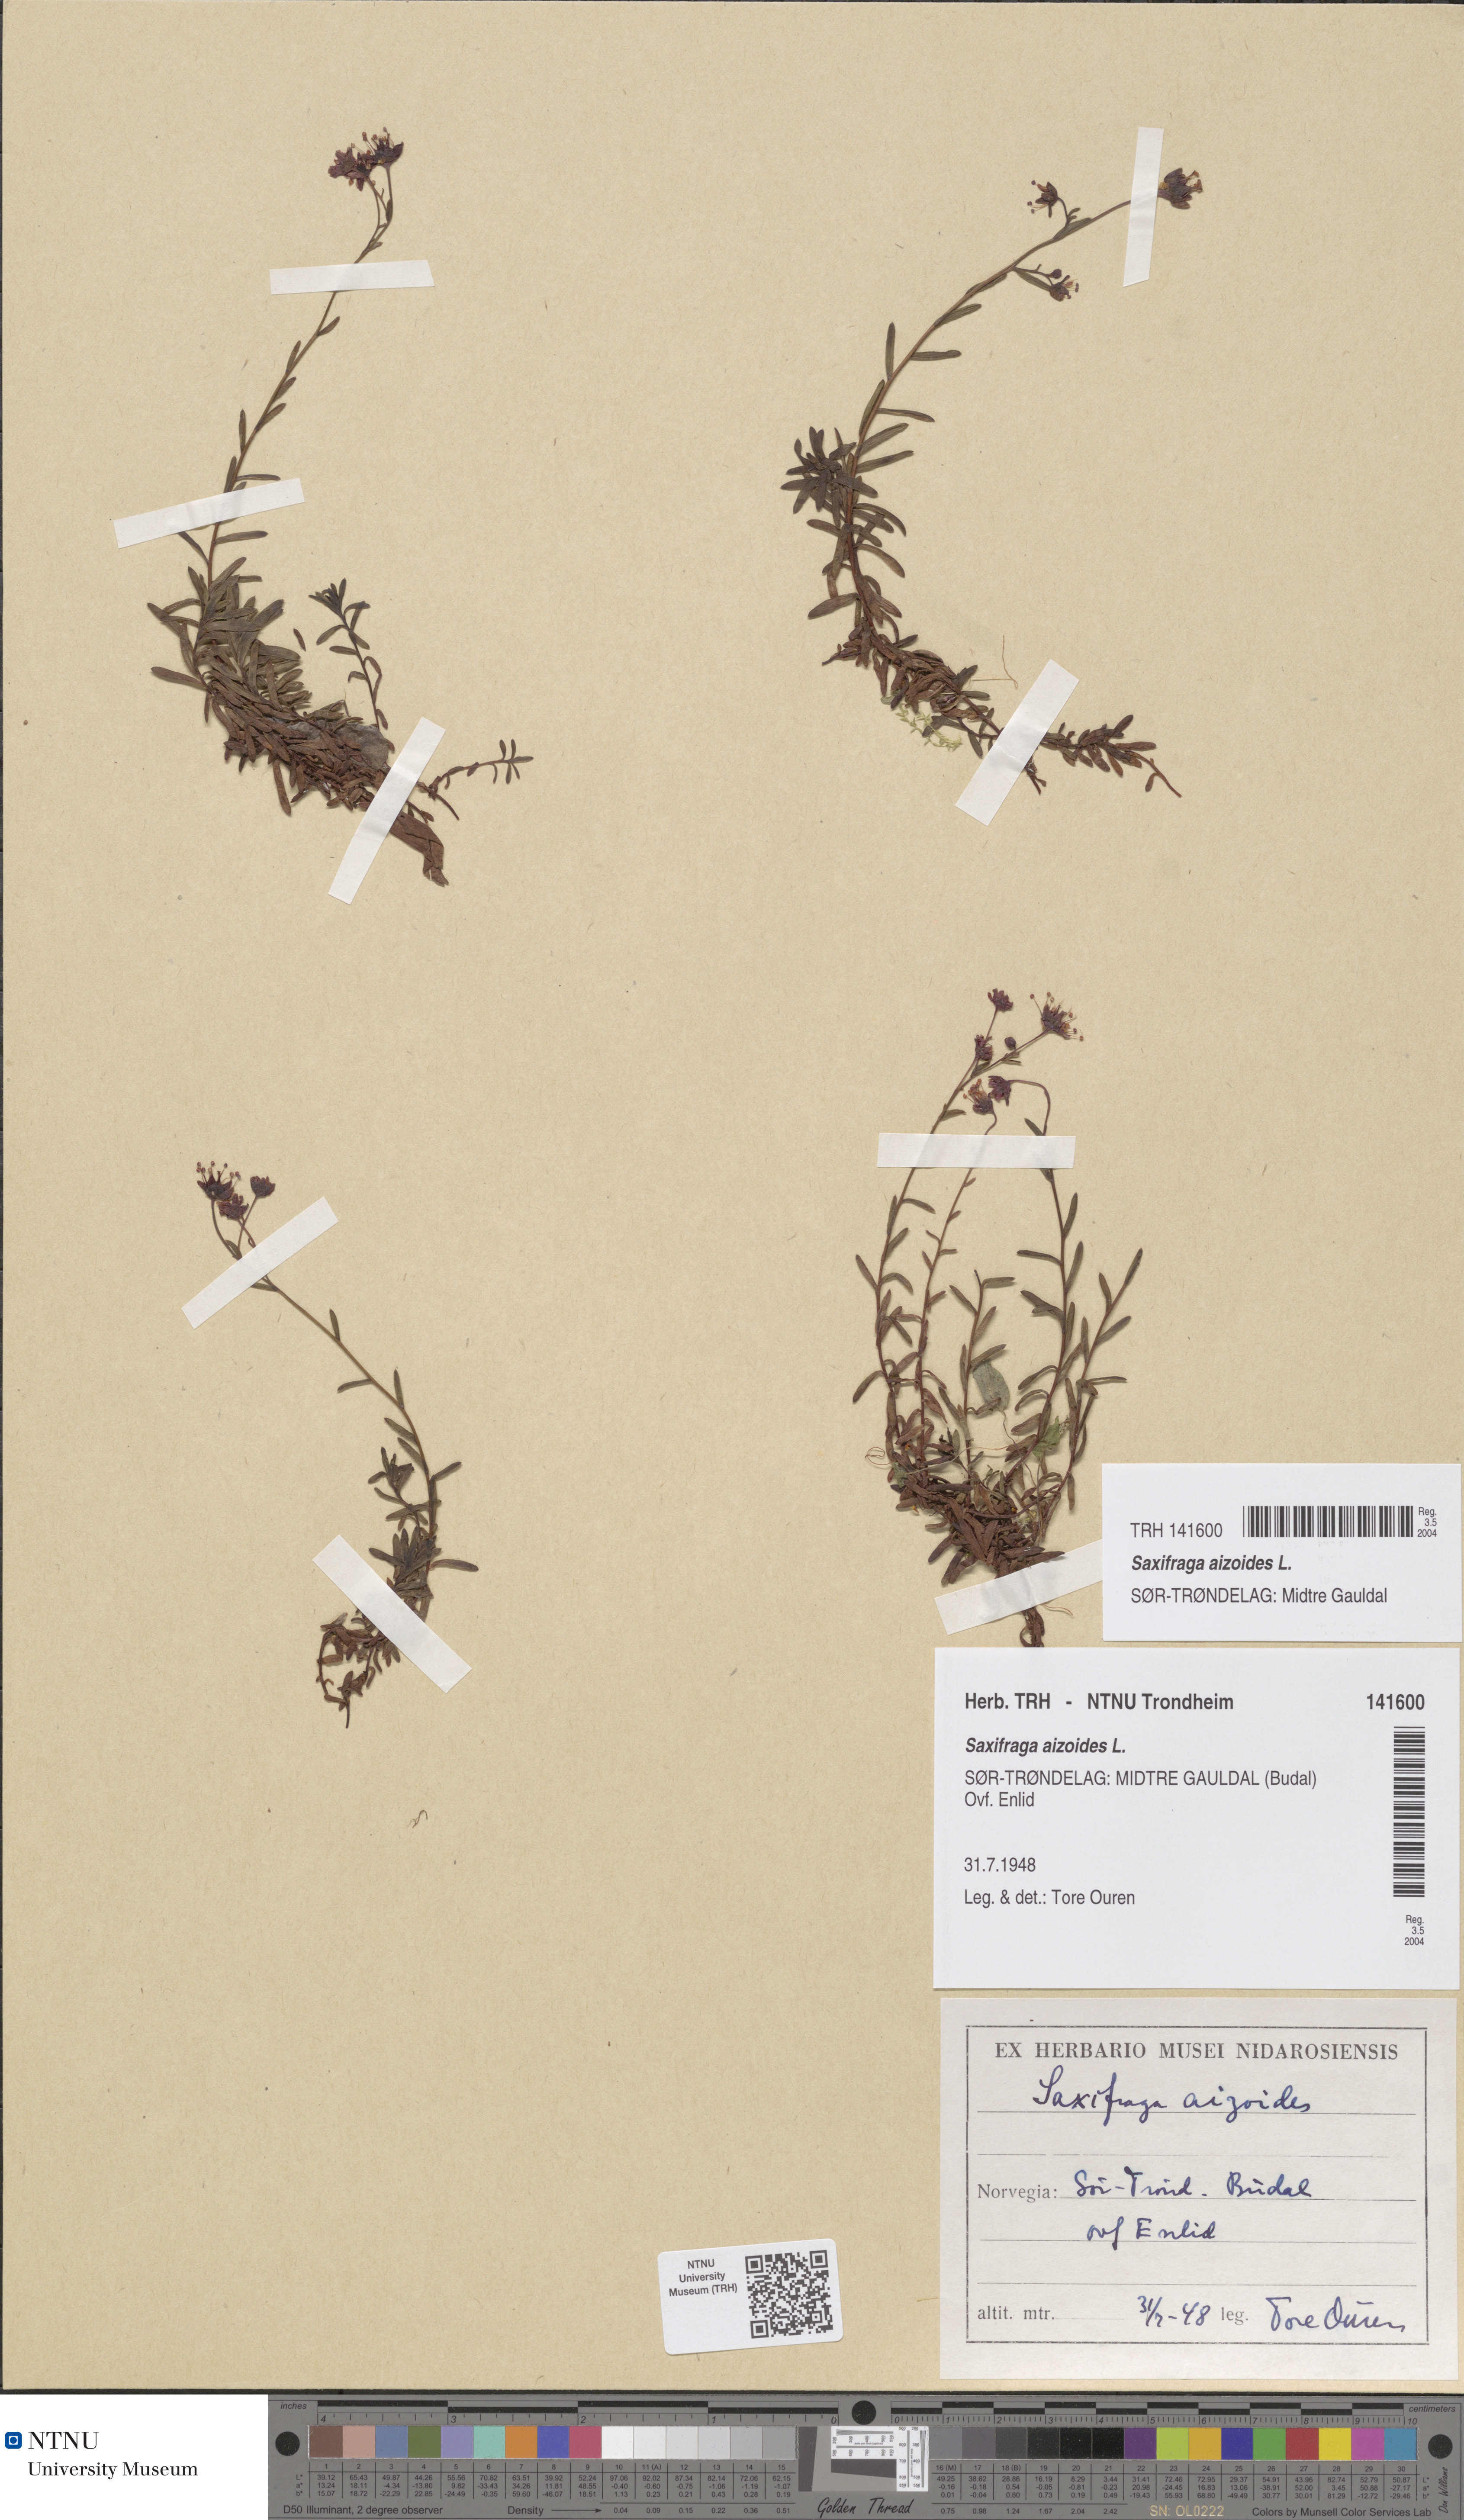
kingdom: Plantae
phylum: Tracheophyta
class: Magnoliopsida
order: Saxifragales
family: Saxifragaceae
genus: Saxifraga
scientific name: Saxifraga aizoides
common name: Yellow mountain saxifrage
